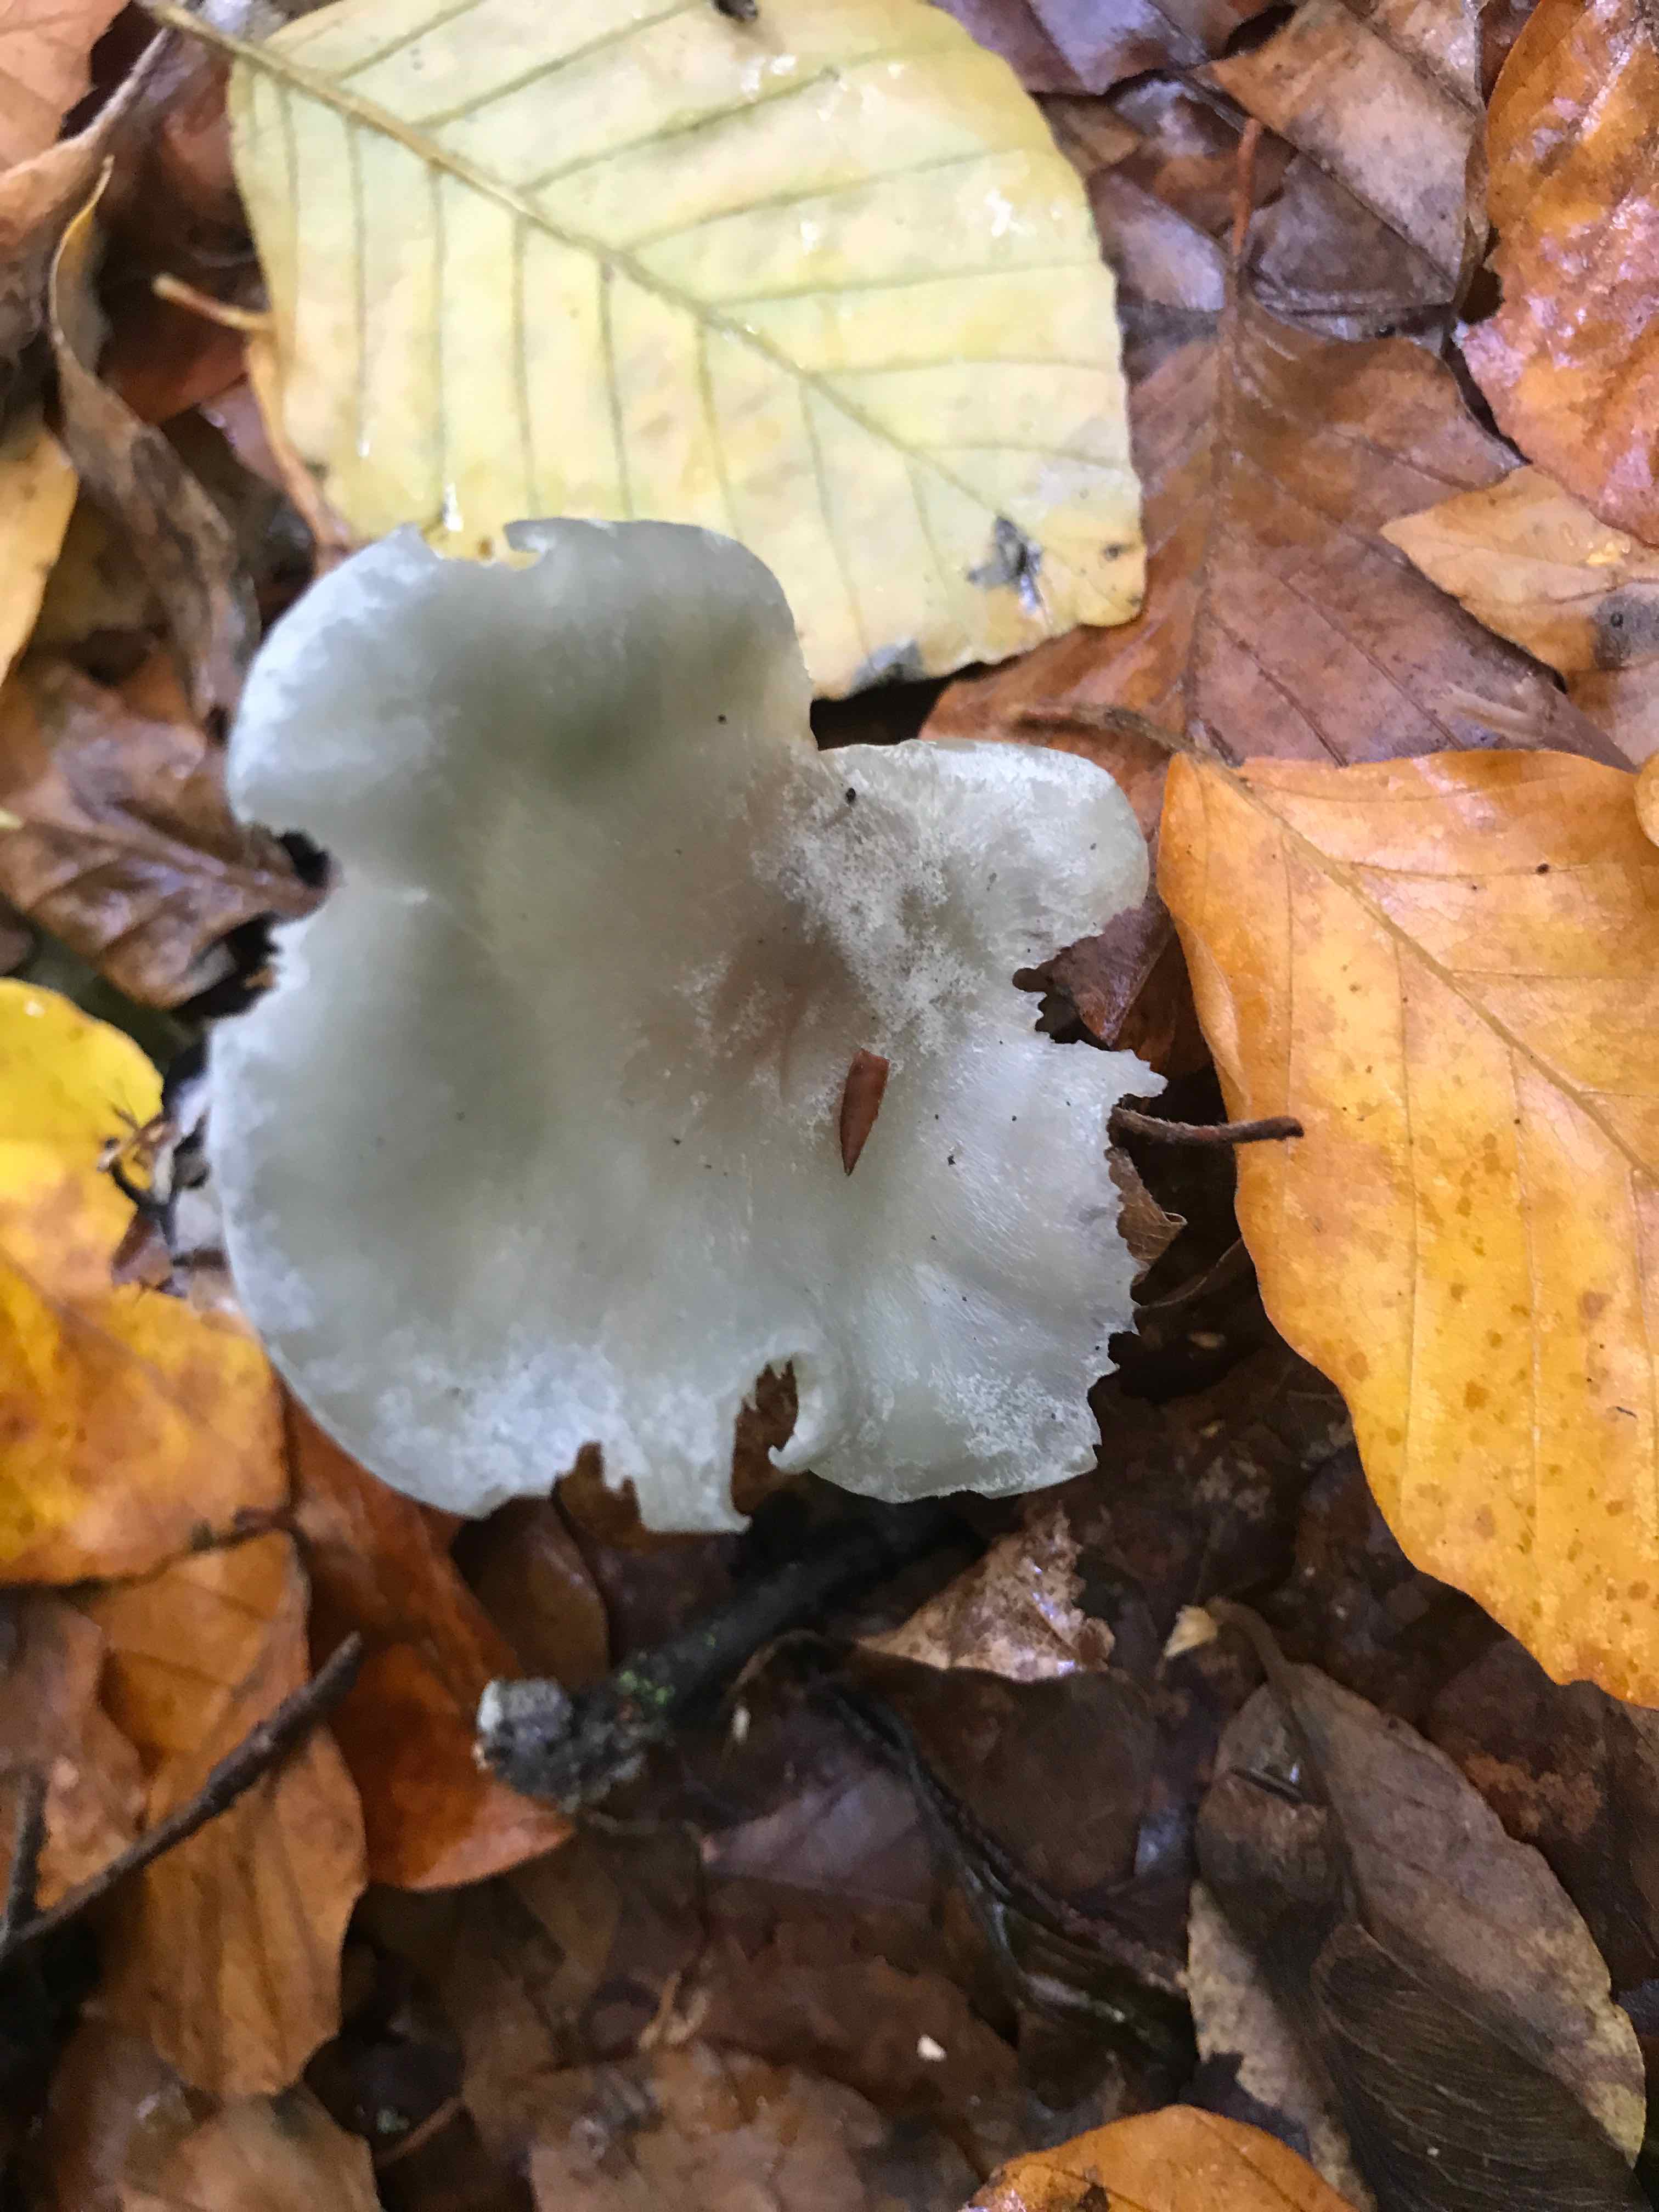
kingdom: Fungi
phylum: Basidiomycota
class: Agaricomycetes
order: Agaricales
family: Tricholomataceae
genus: Clitocybe
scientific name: Clitocybe odora
